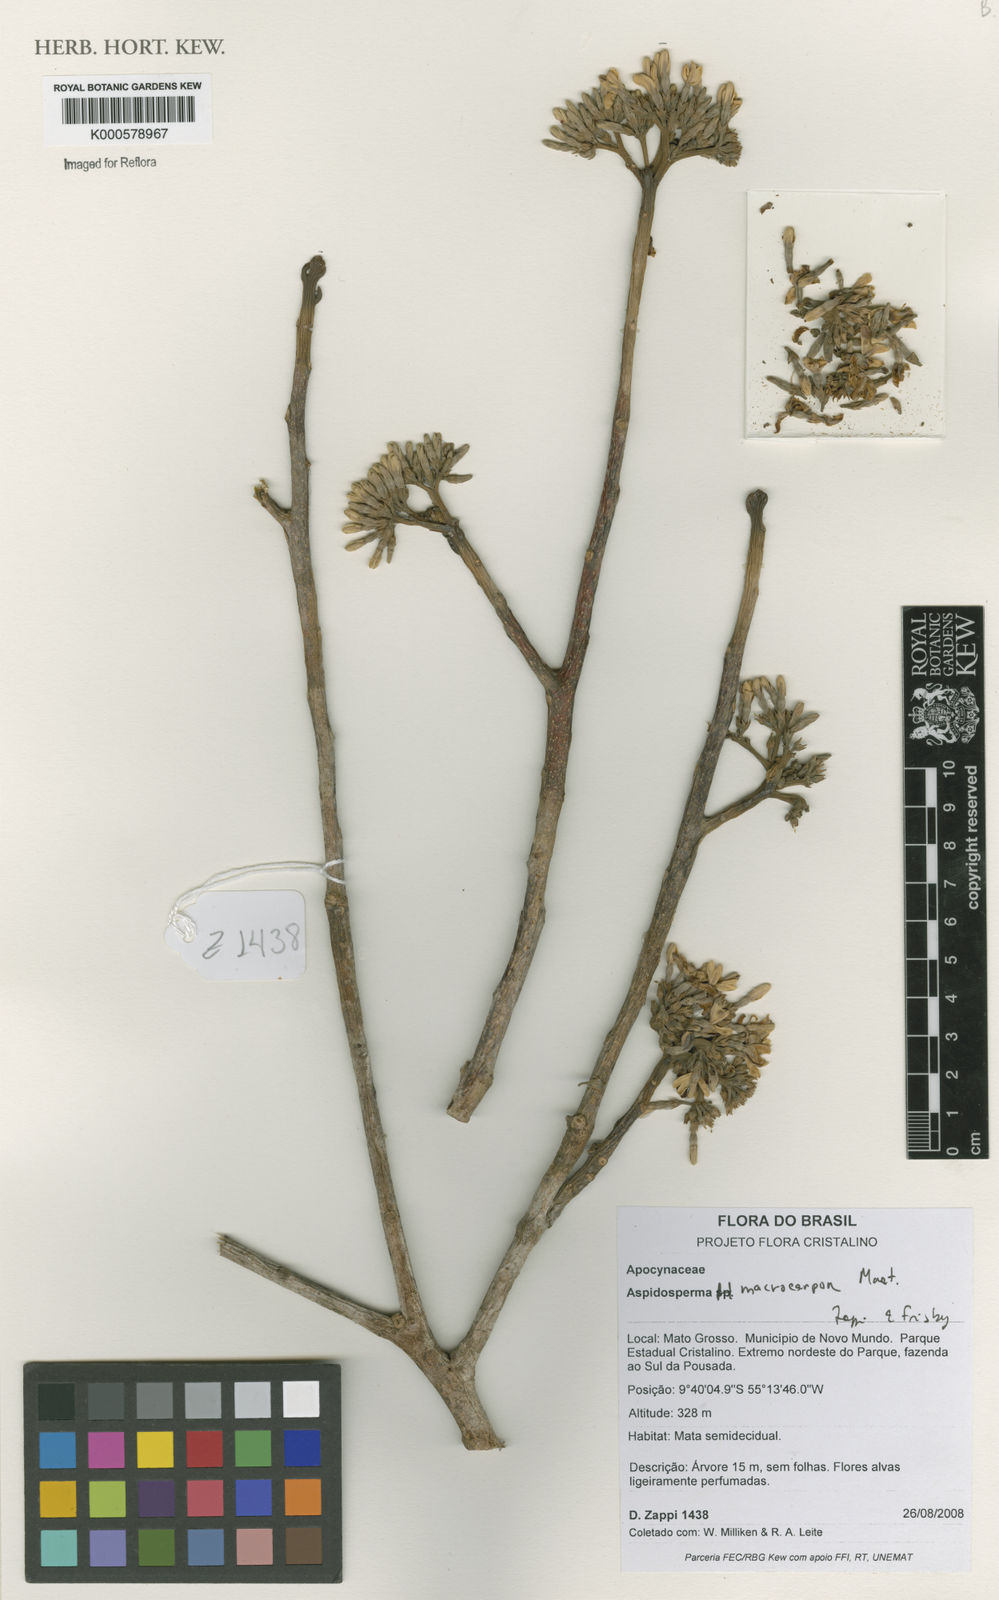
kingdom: Plantae
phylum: Tracheophyta
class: Magnoliopsida
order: Gentianales
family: Apocynaceae
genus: Aspidosperma
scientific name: Aspidosperma macrocarpon
